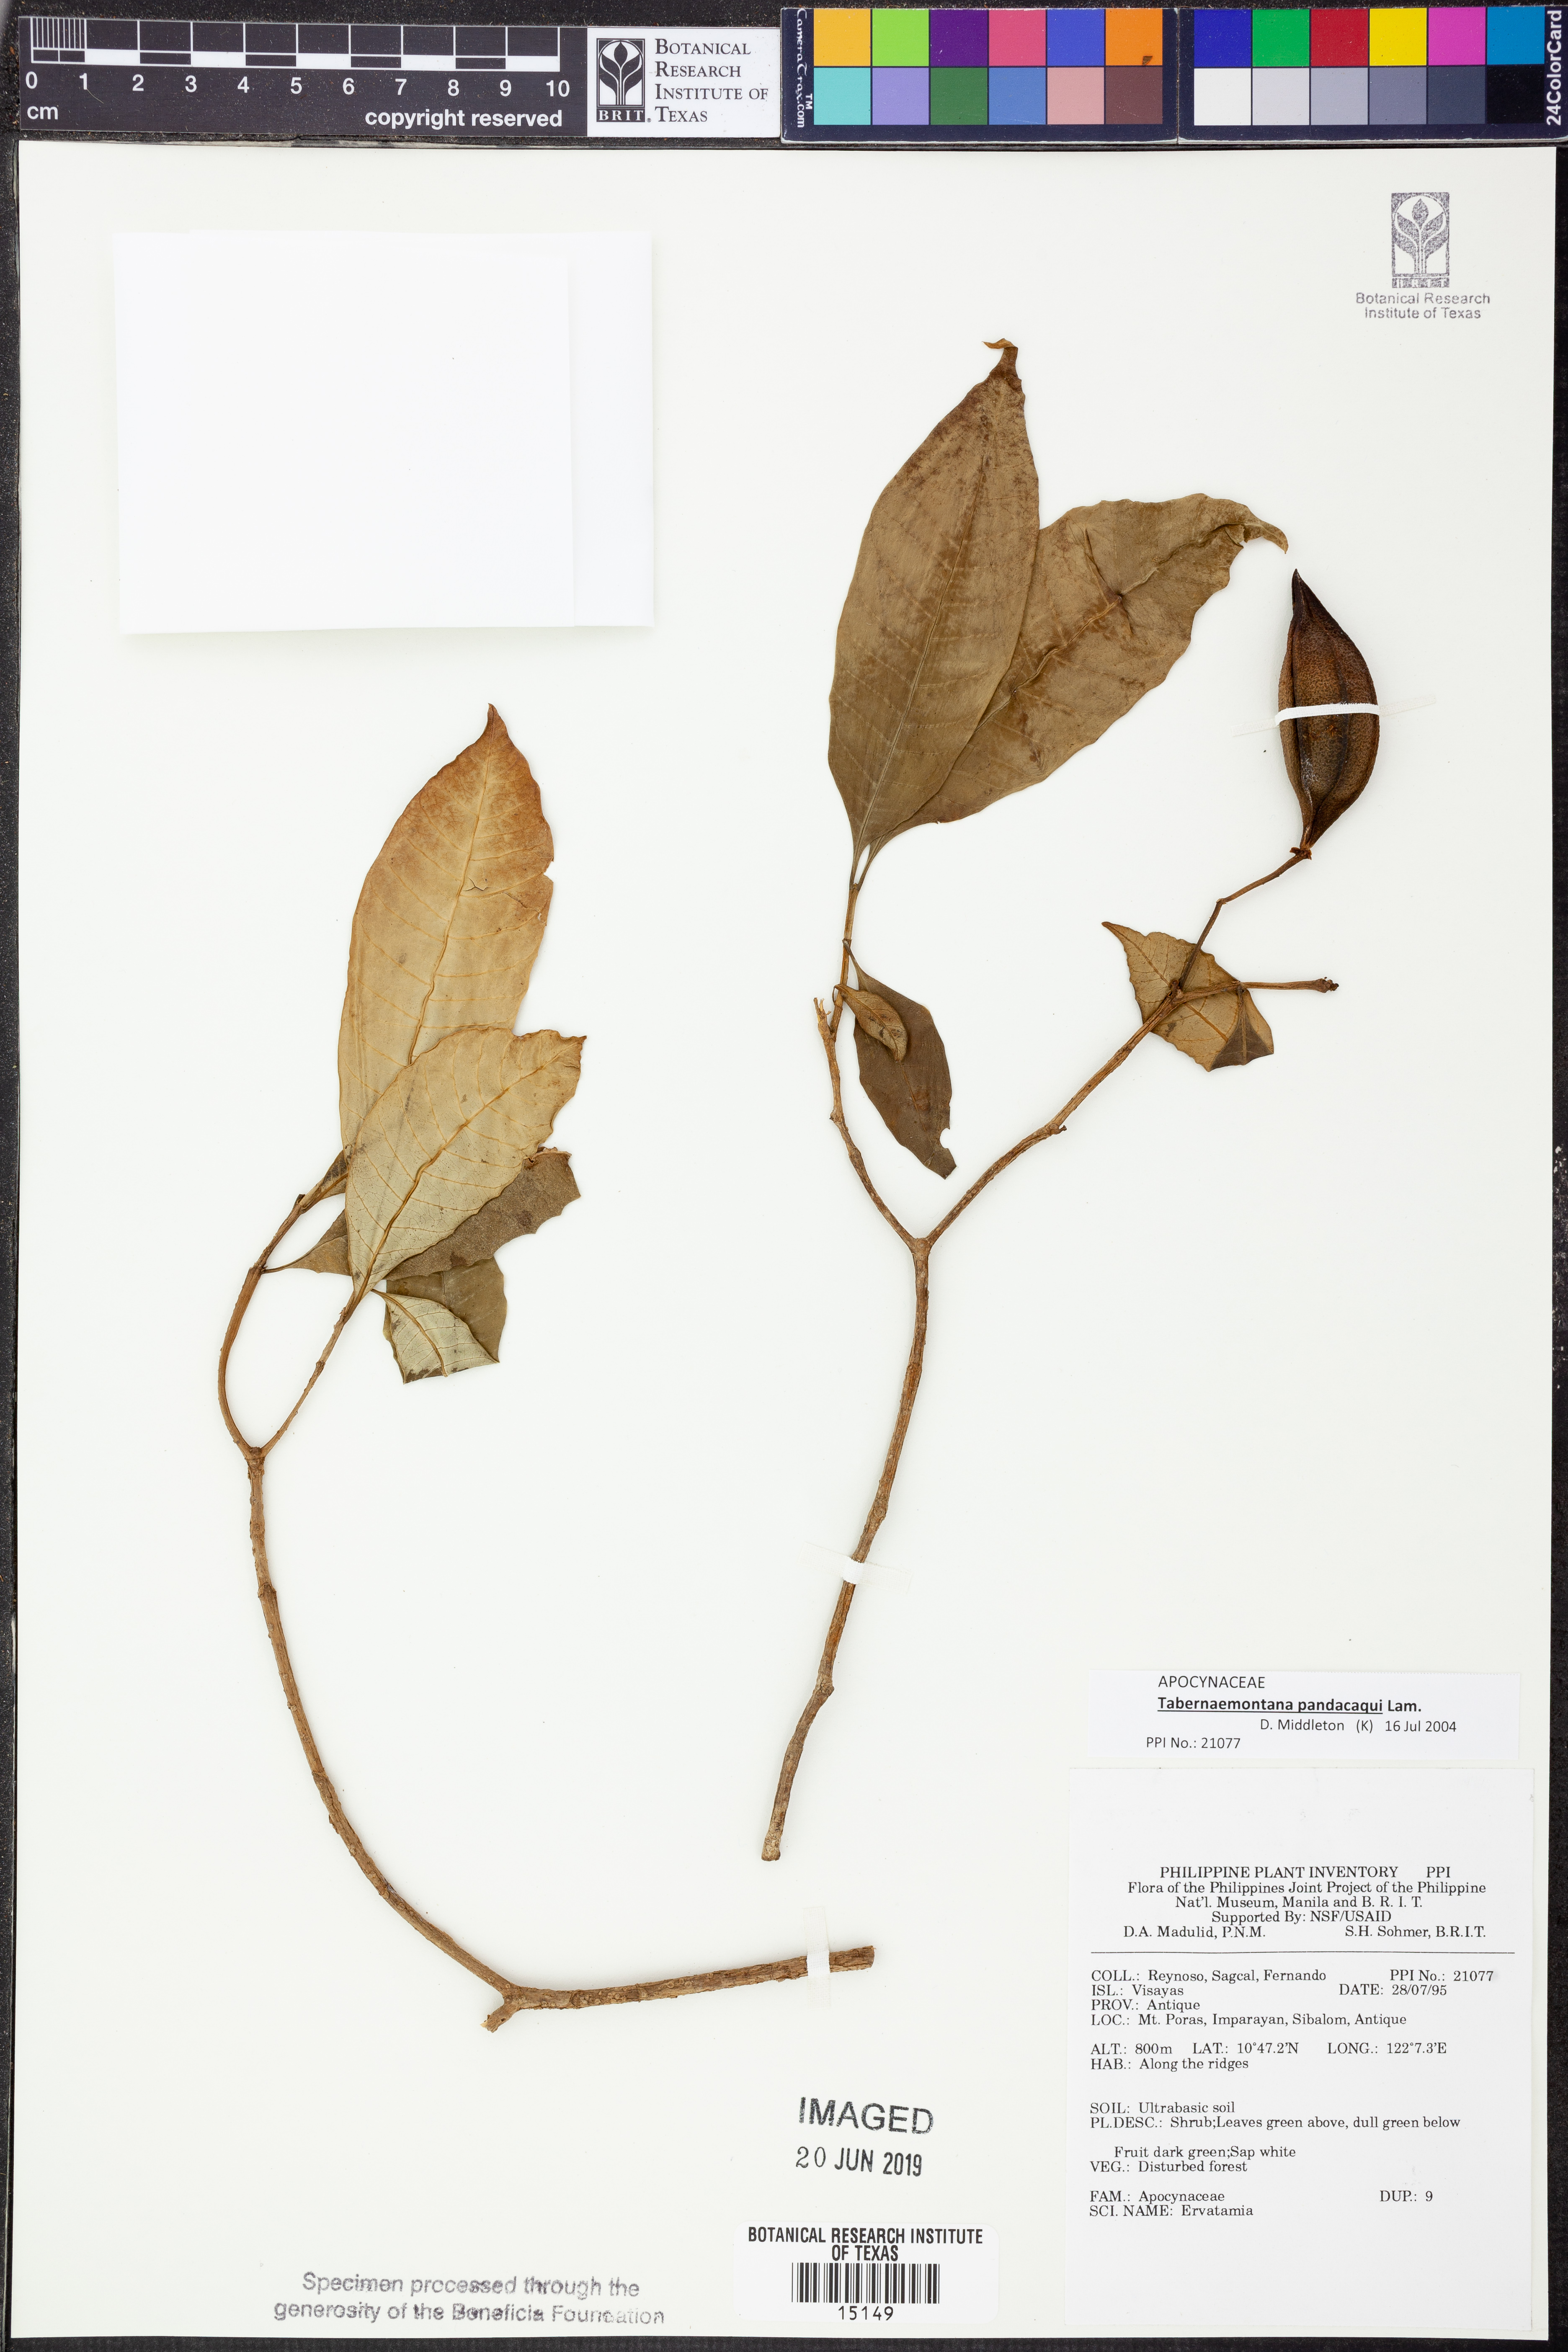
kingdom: Plantae
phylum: Tracheophyta
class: Magnoliopsida
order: Gentianales
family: Apocynaceae
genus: Tabernaemontana
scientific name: Tabernaemontana pandacaqui
